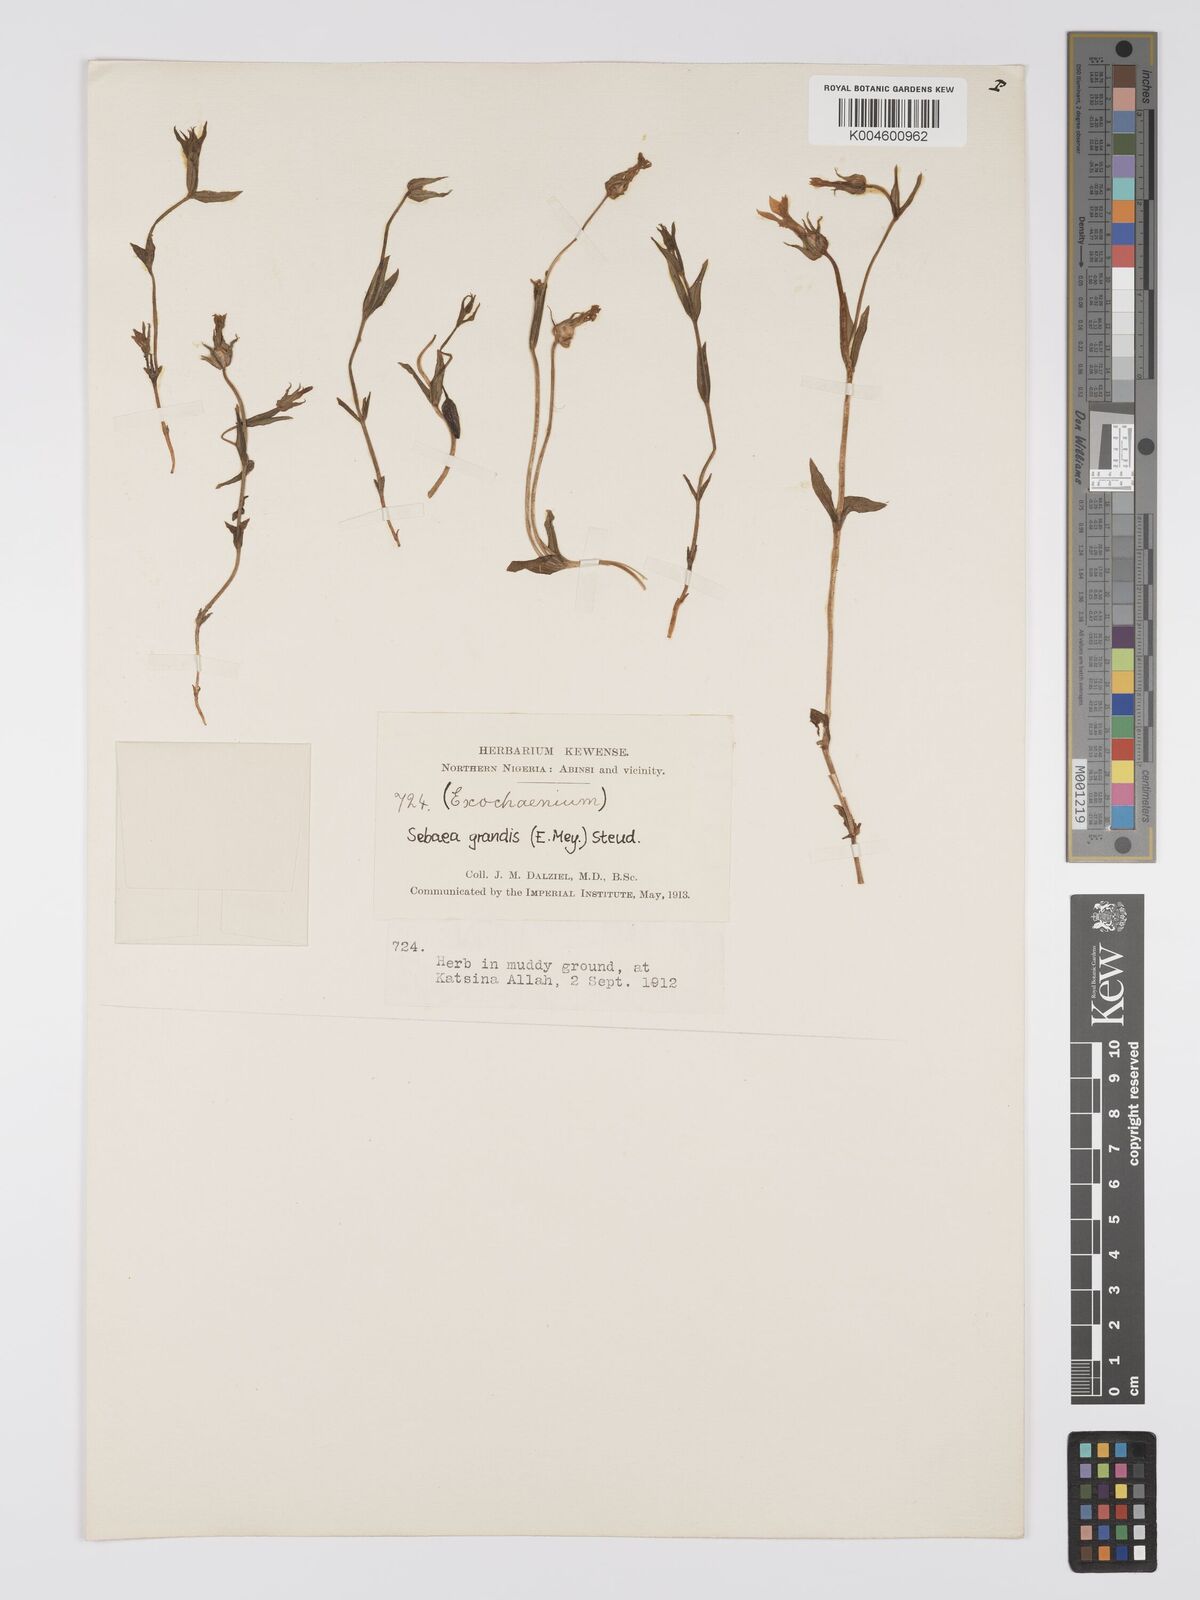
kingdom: Plantae
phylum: Tracheophyta
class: Magnoliopsida
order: Gentianales
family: Gentianaceae
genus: Exochaenium
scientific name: Exochaenium grande
